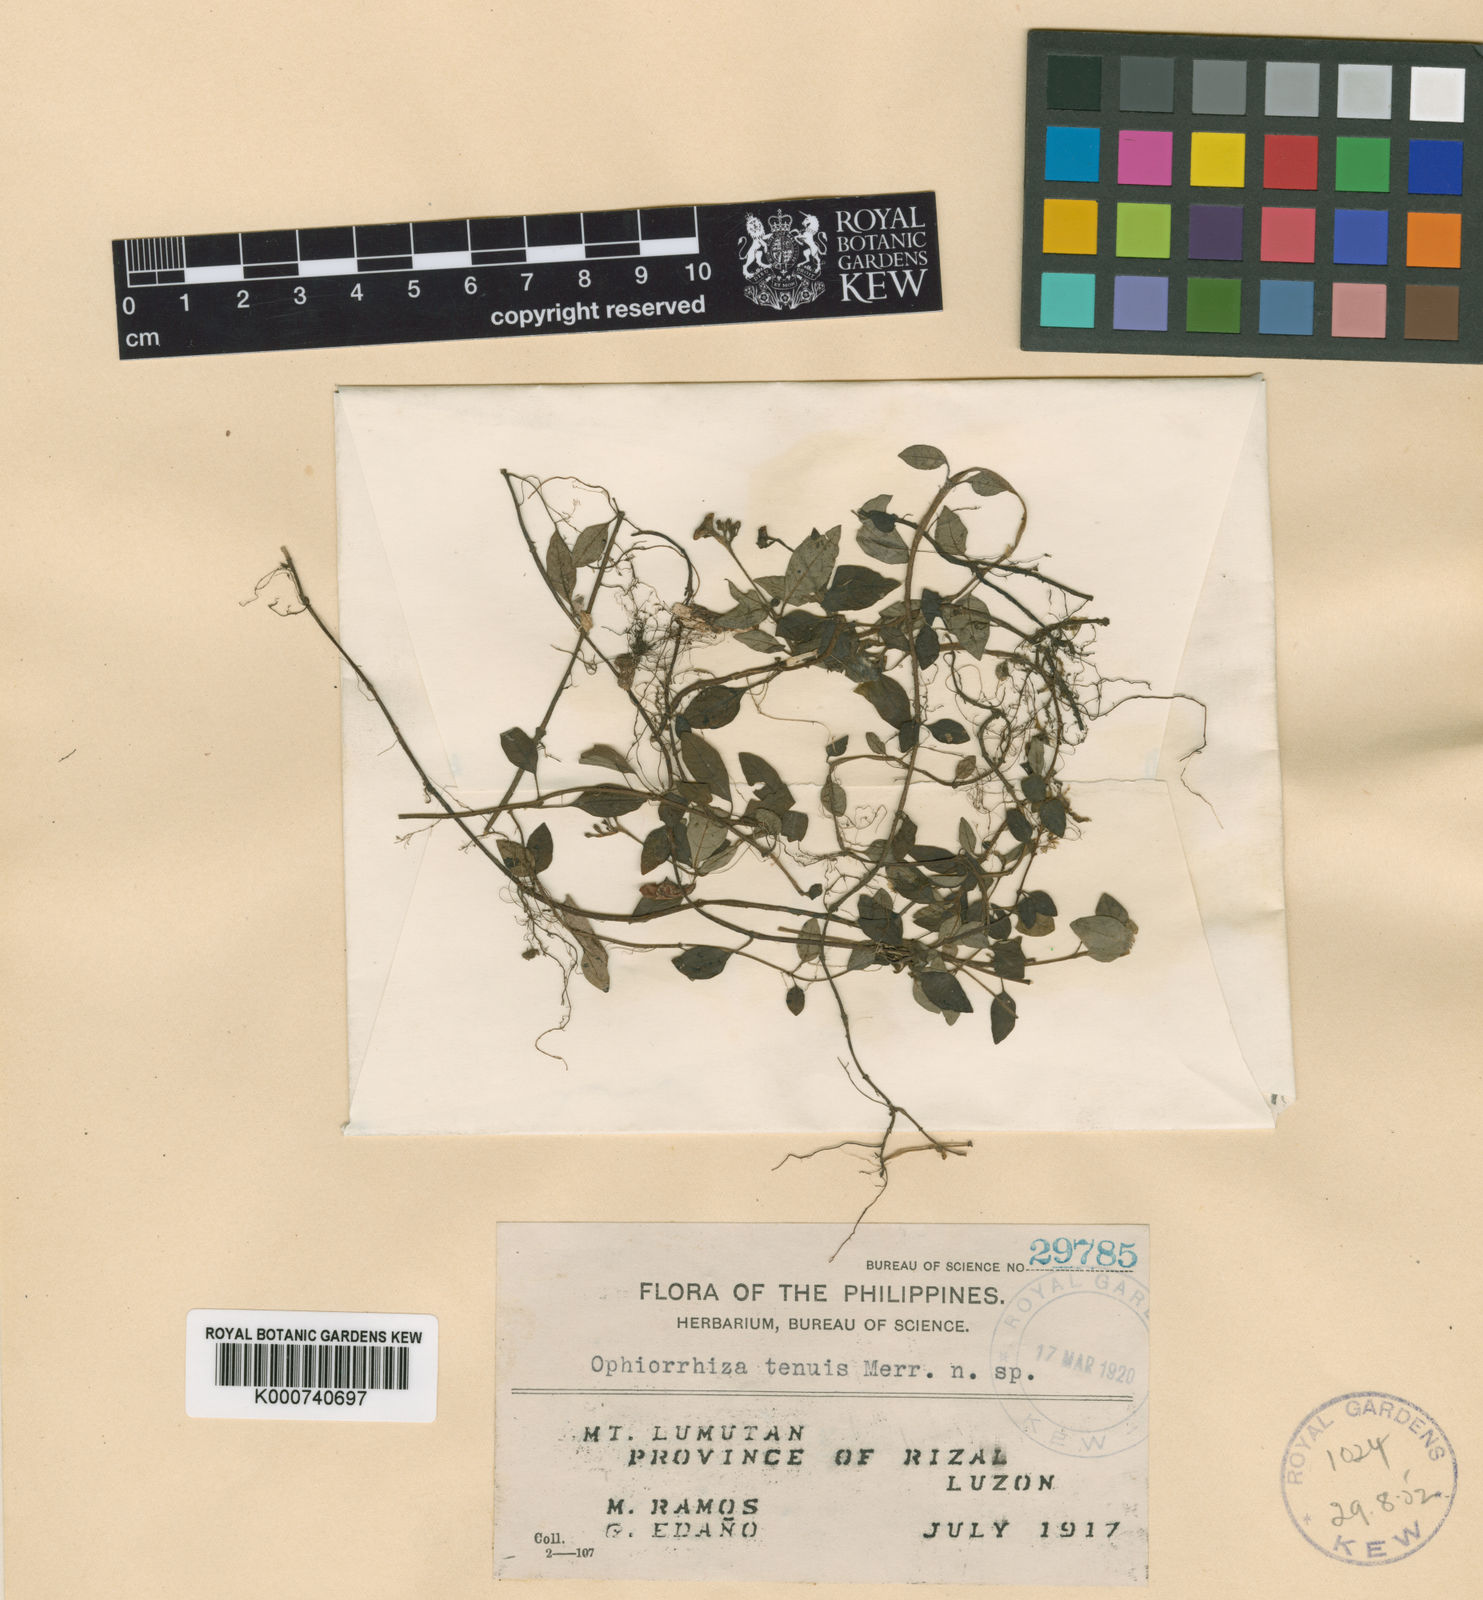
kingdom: Plantae
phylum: Tracheophyta
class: Magnoliopsida
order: Gentianales
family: Rubiaceae
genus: Ophiorrhiza
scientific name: Ophiorrhiza tenuis
